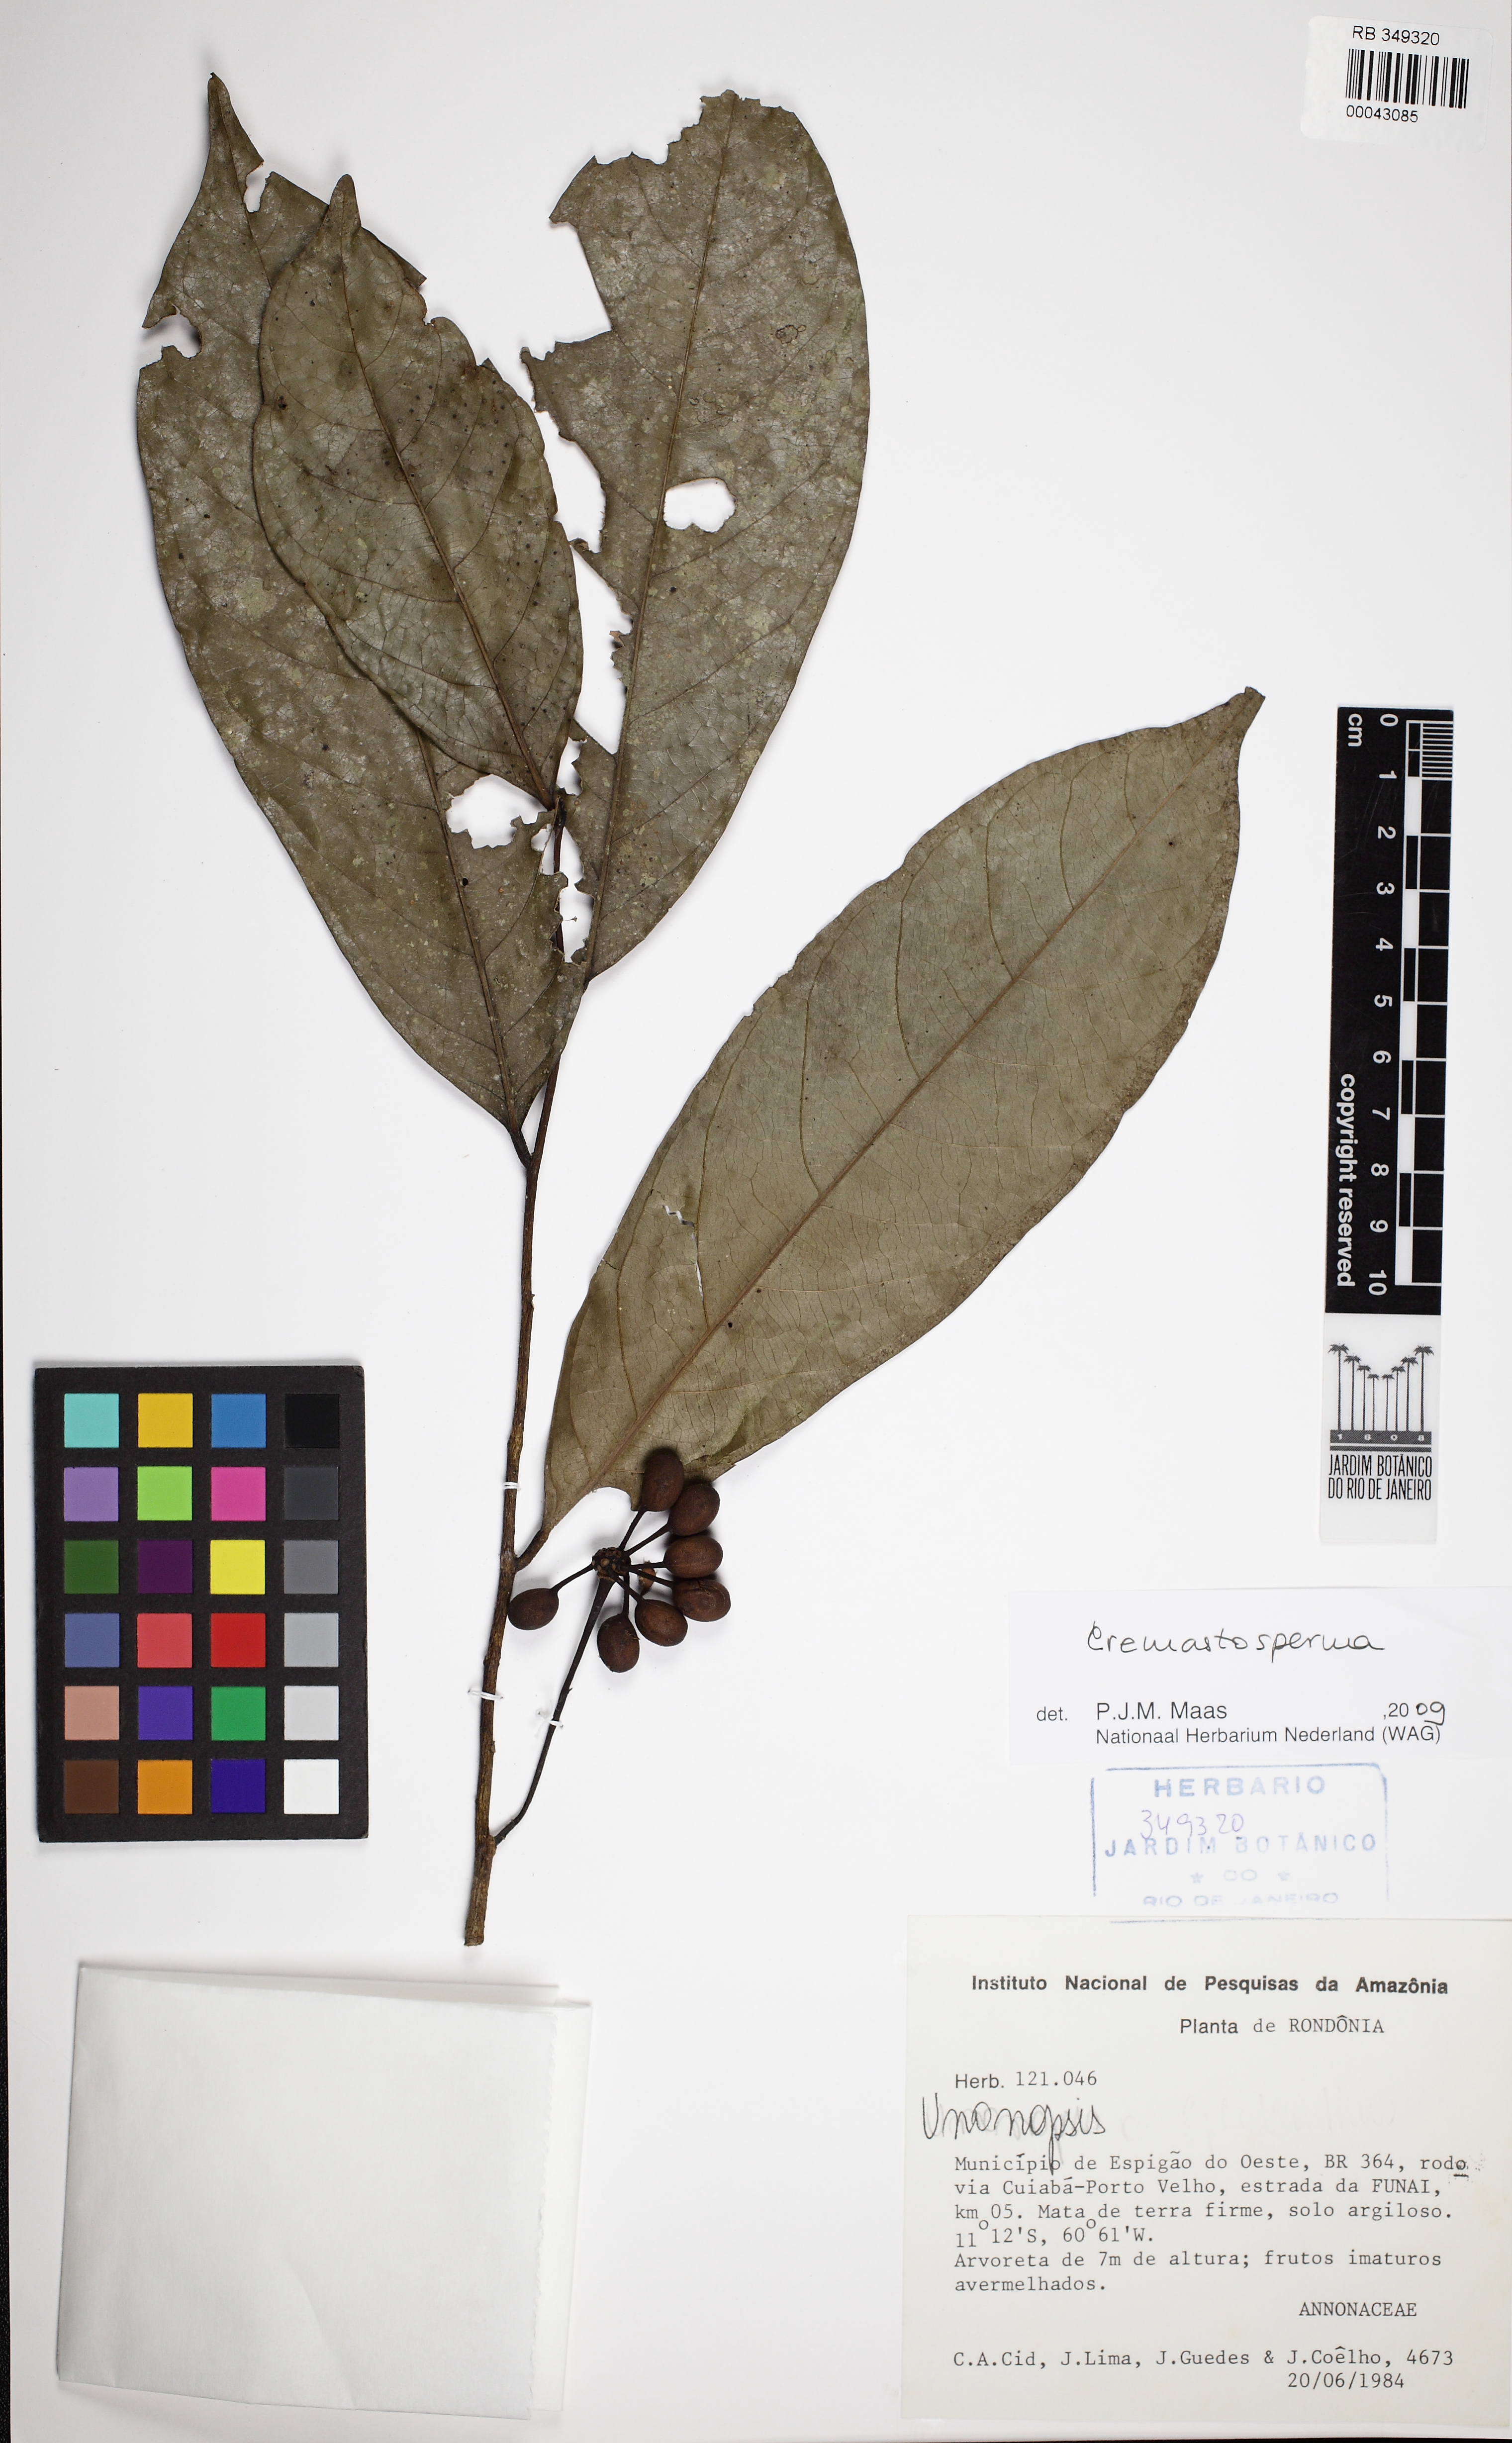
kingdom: Plantae
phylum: Tracheophyta
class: Magnoliopsida
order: Magnoliales
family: Annonaceae
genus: Cremastosperma
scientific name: Cremastosperma monospermum
